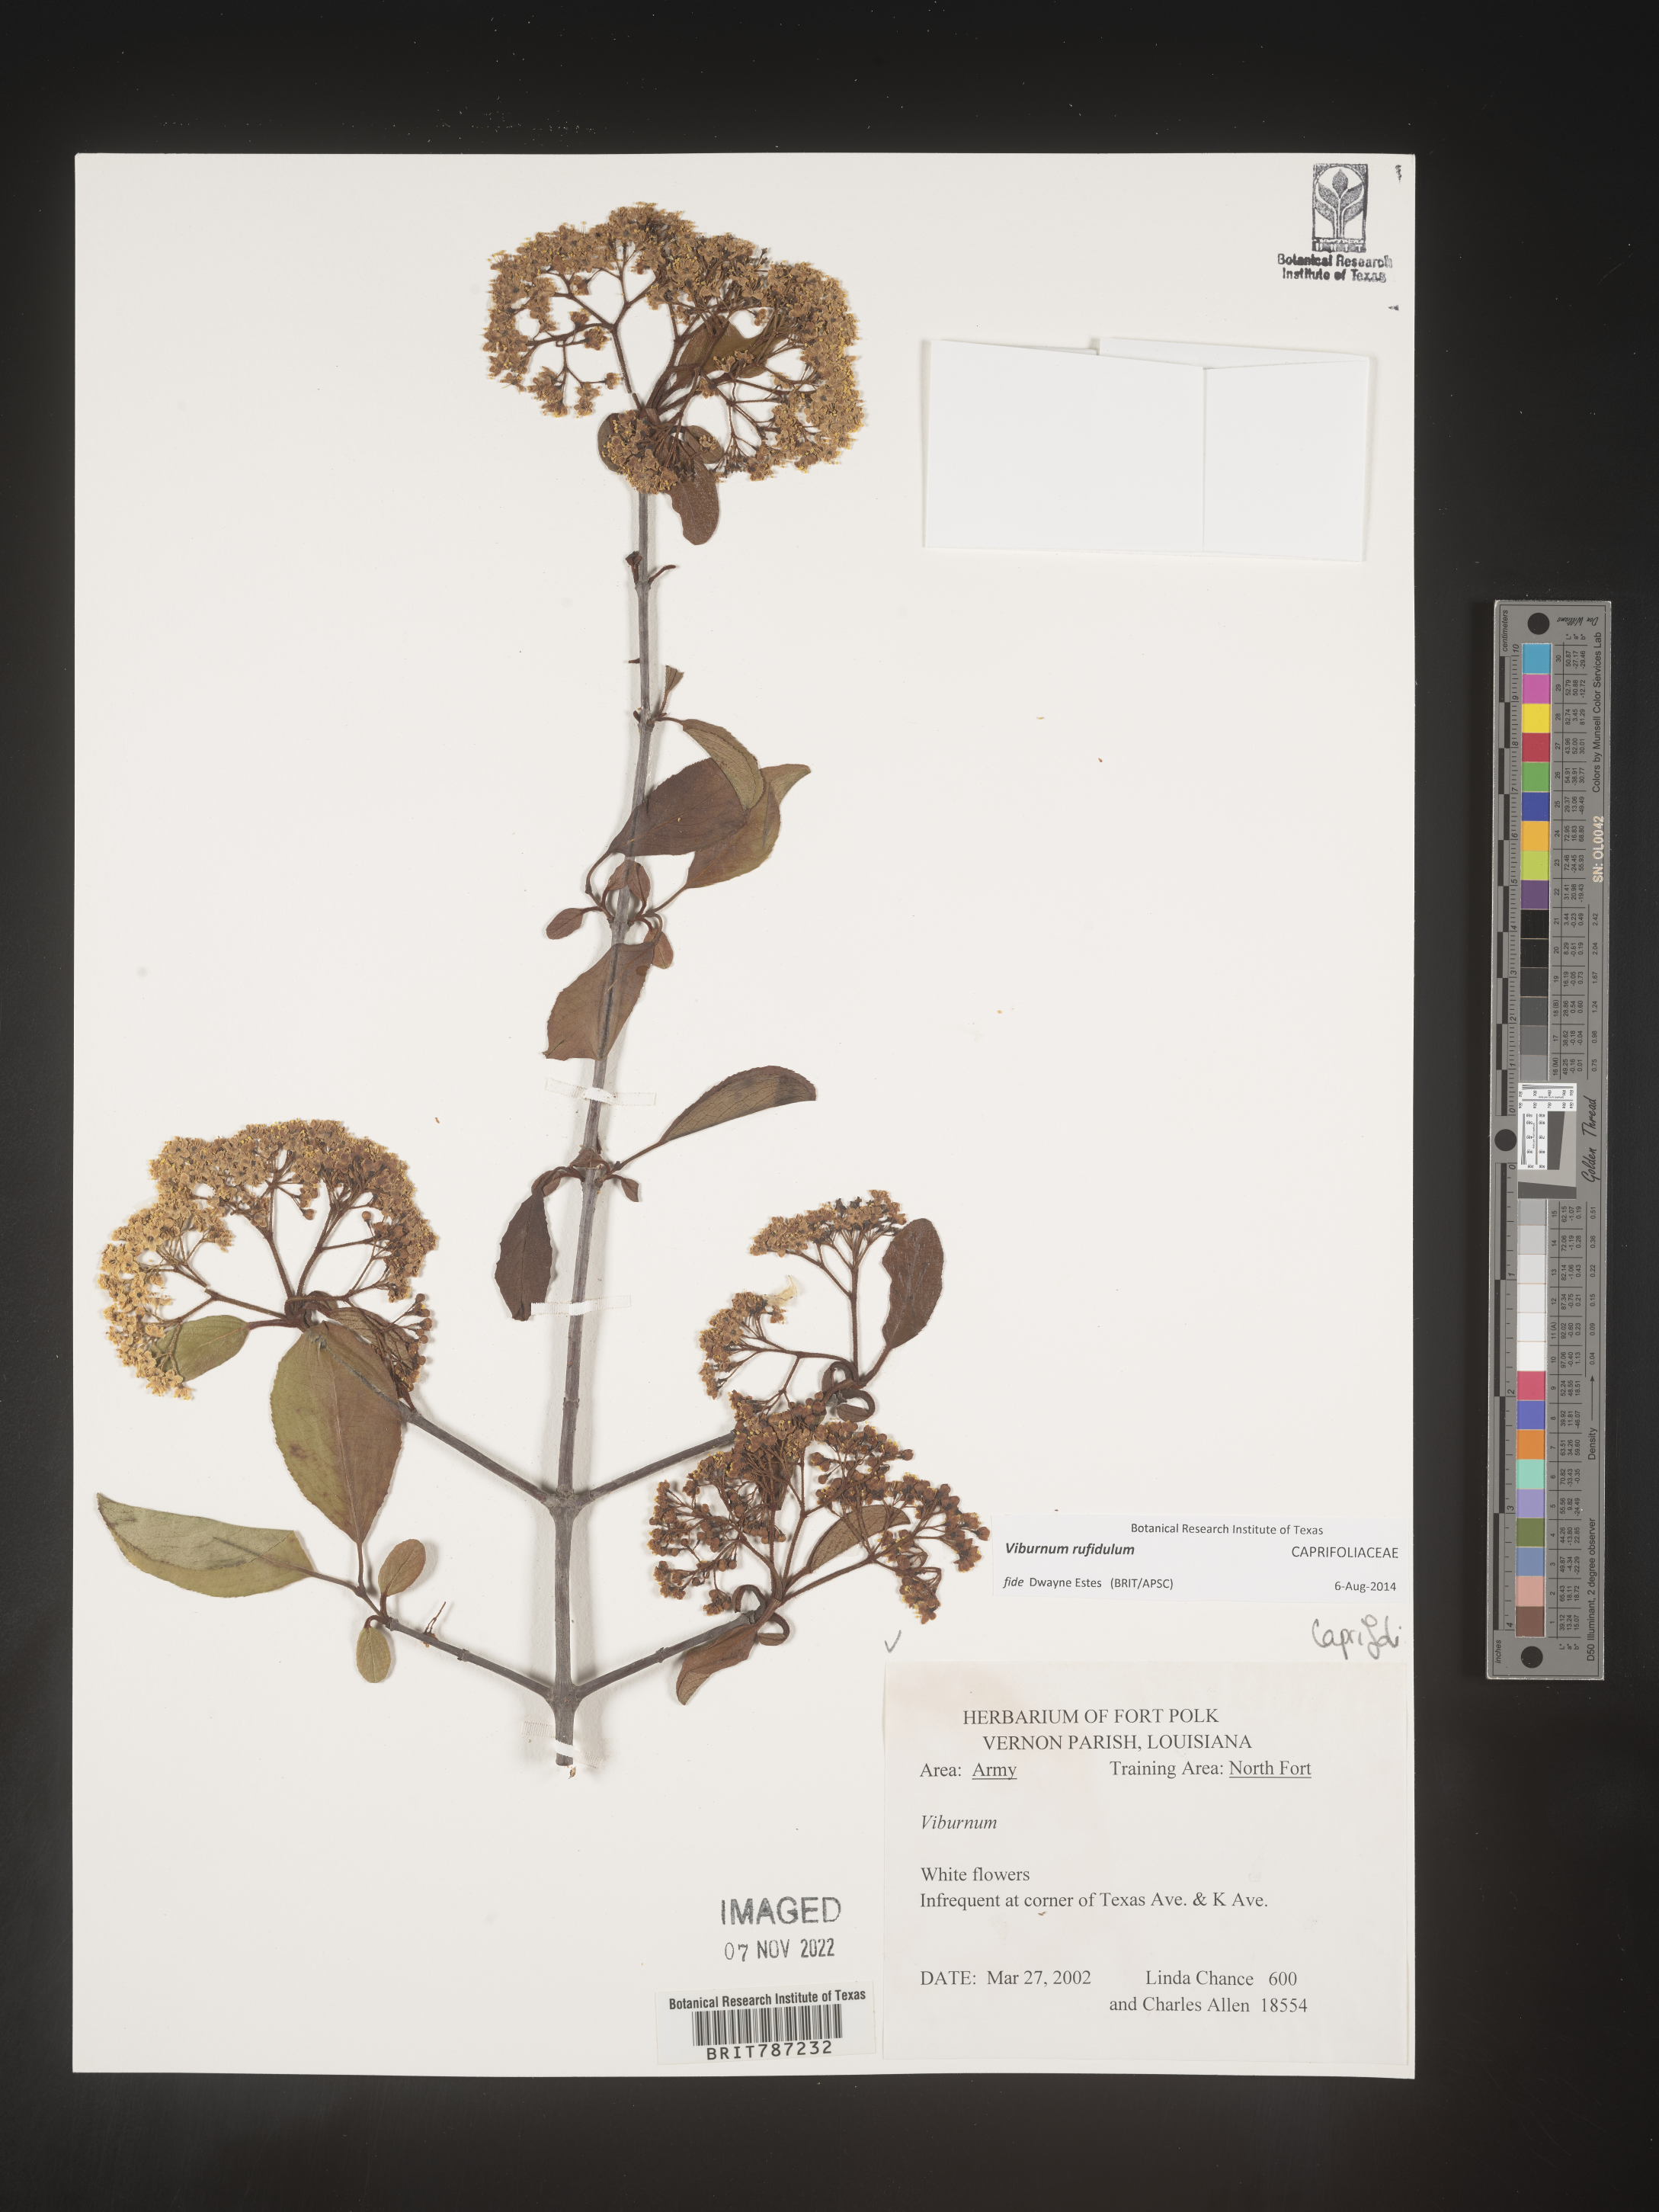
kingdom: Plantae
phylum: Tracheophyta
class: Magnoliopsida
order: Dipsacales
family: Viburnaceae
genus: Viburnum
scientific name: Viburnum rufidulum
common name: Blue haw
